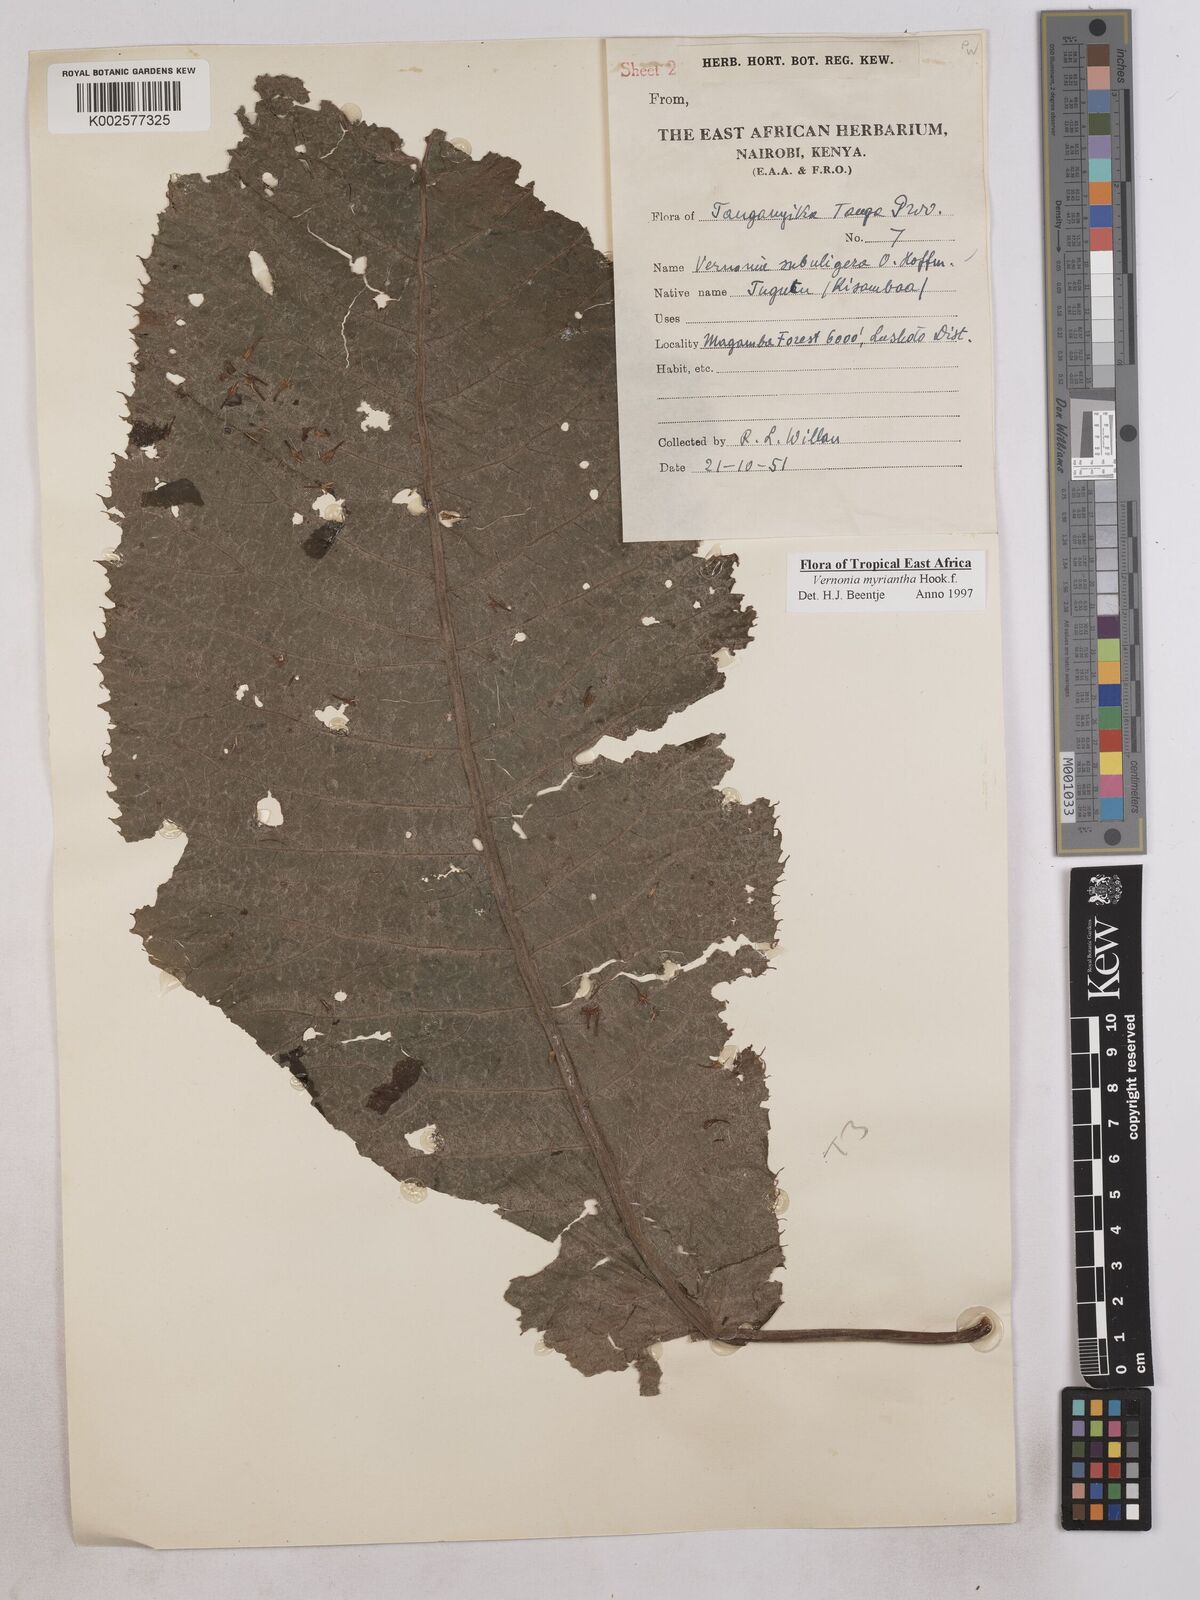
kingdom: Plantae
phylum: Tracheophyta
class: Magnoliopsida
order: Asterales
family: Asteraceae
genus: Gymnanthemum
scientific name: Gymnanthemum myrianthum
